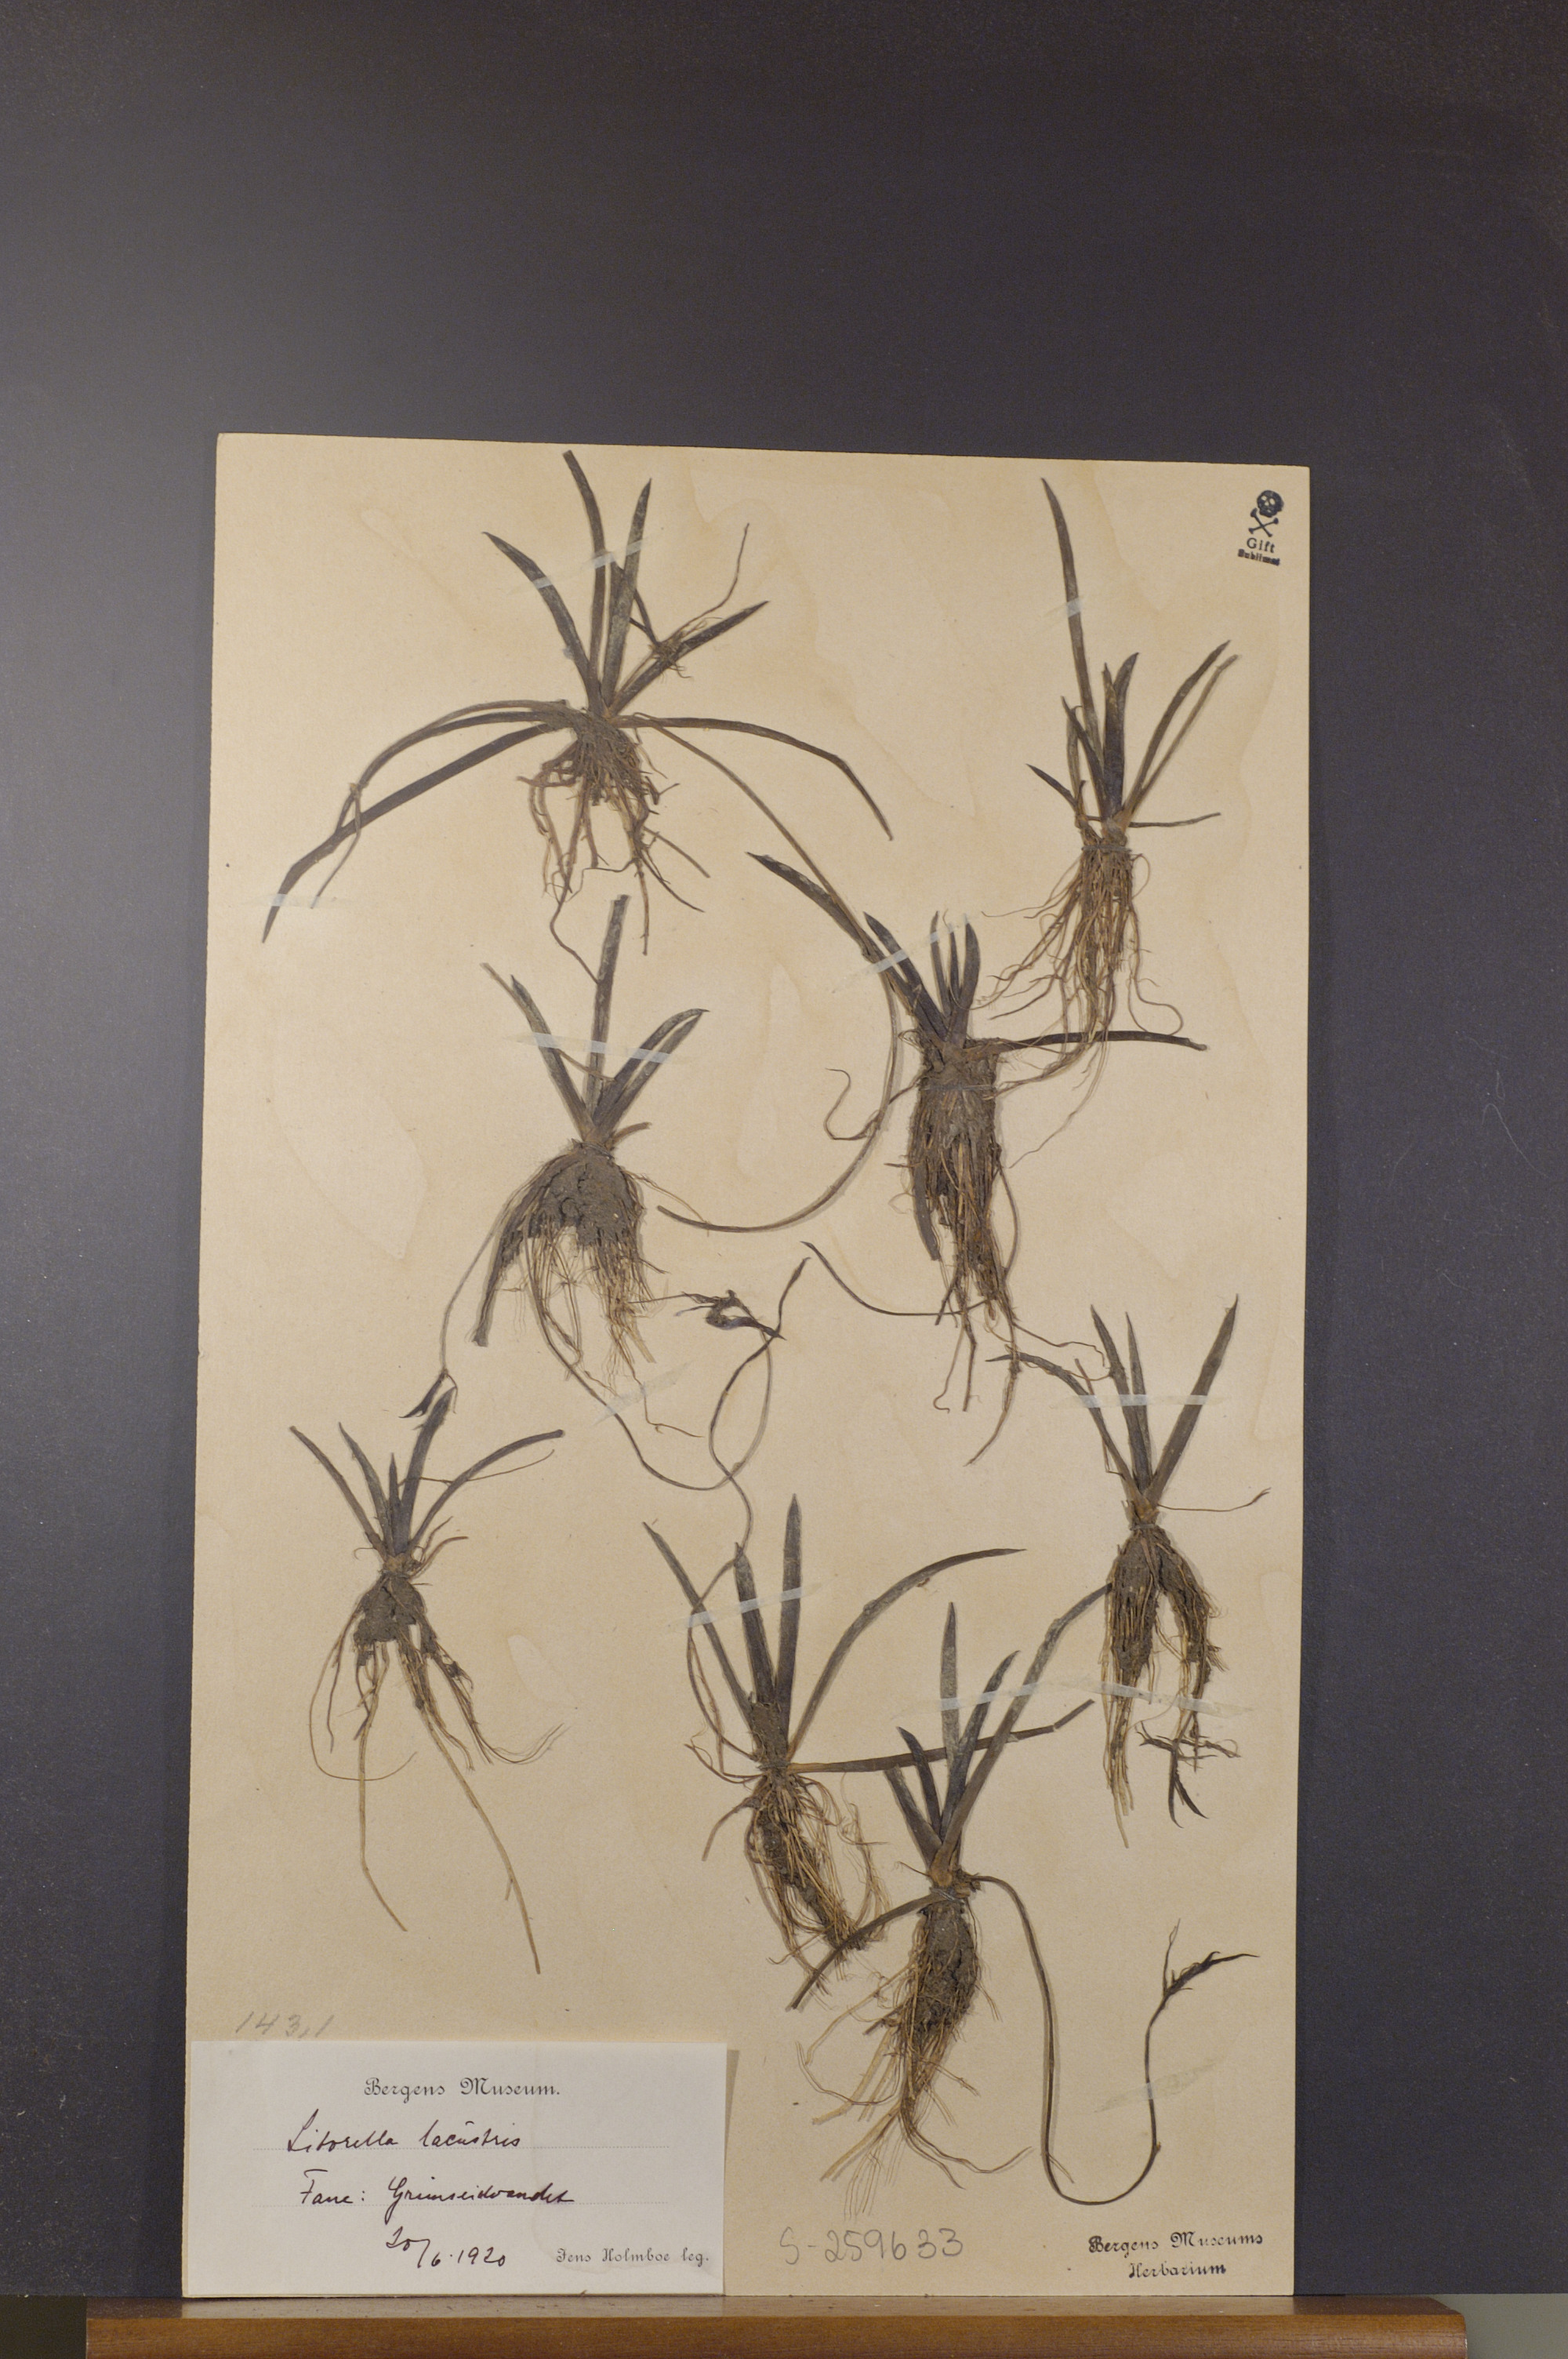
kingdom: Plantae
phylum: Tracheophyta
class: Magnoliopsida
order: Lamiales
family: Plantaginaceae
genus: Littorella
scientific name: Littorella uniflora
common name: Shoreweed
